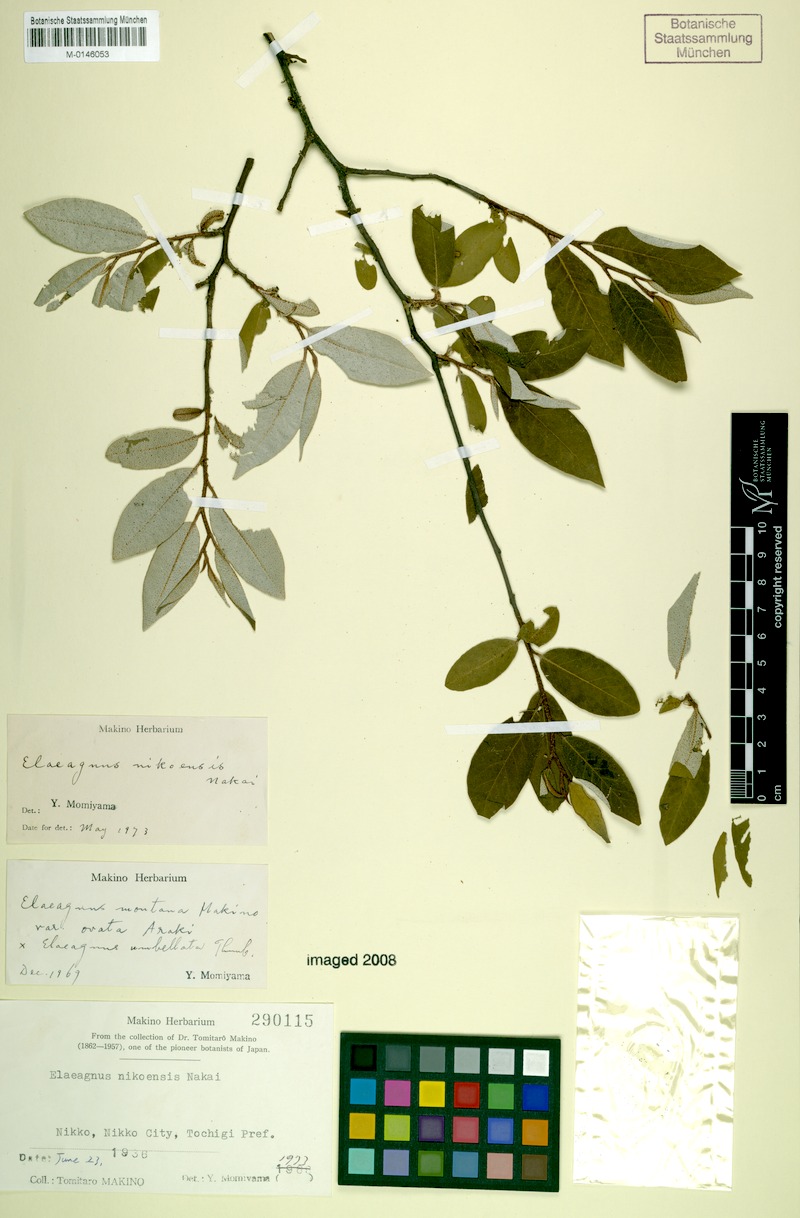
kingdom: Plantae
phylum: Tracheophyta
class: Magnoliopsida
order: Rosales
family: Elaeagnaceae
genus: Elaeagnus
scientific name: Elaeagnus montana
